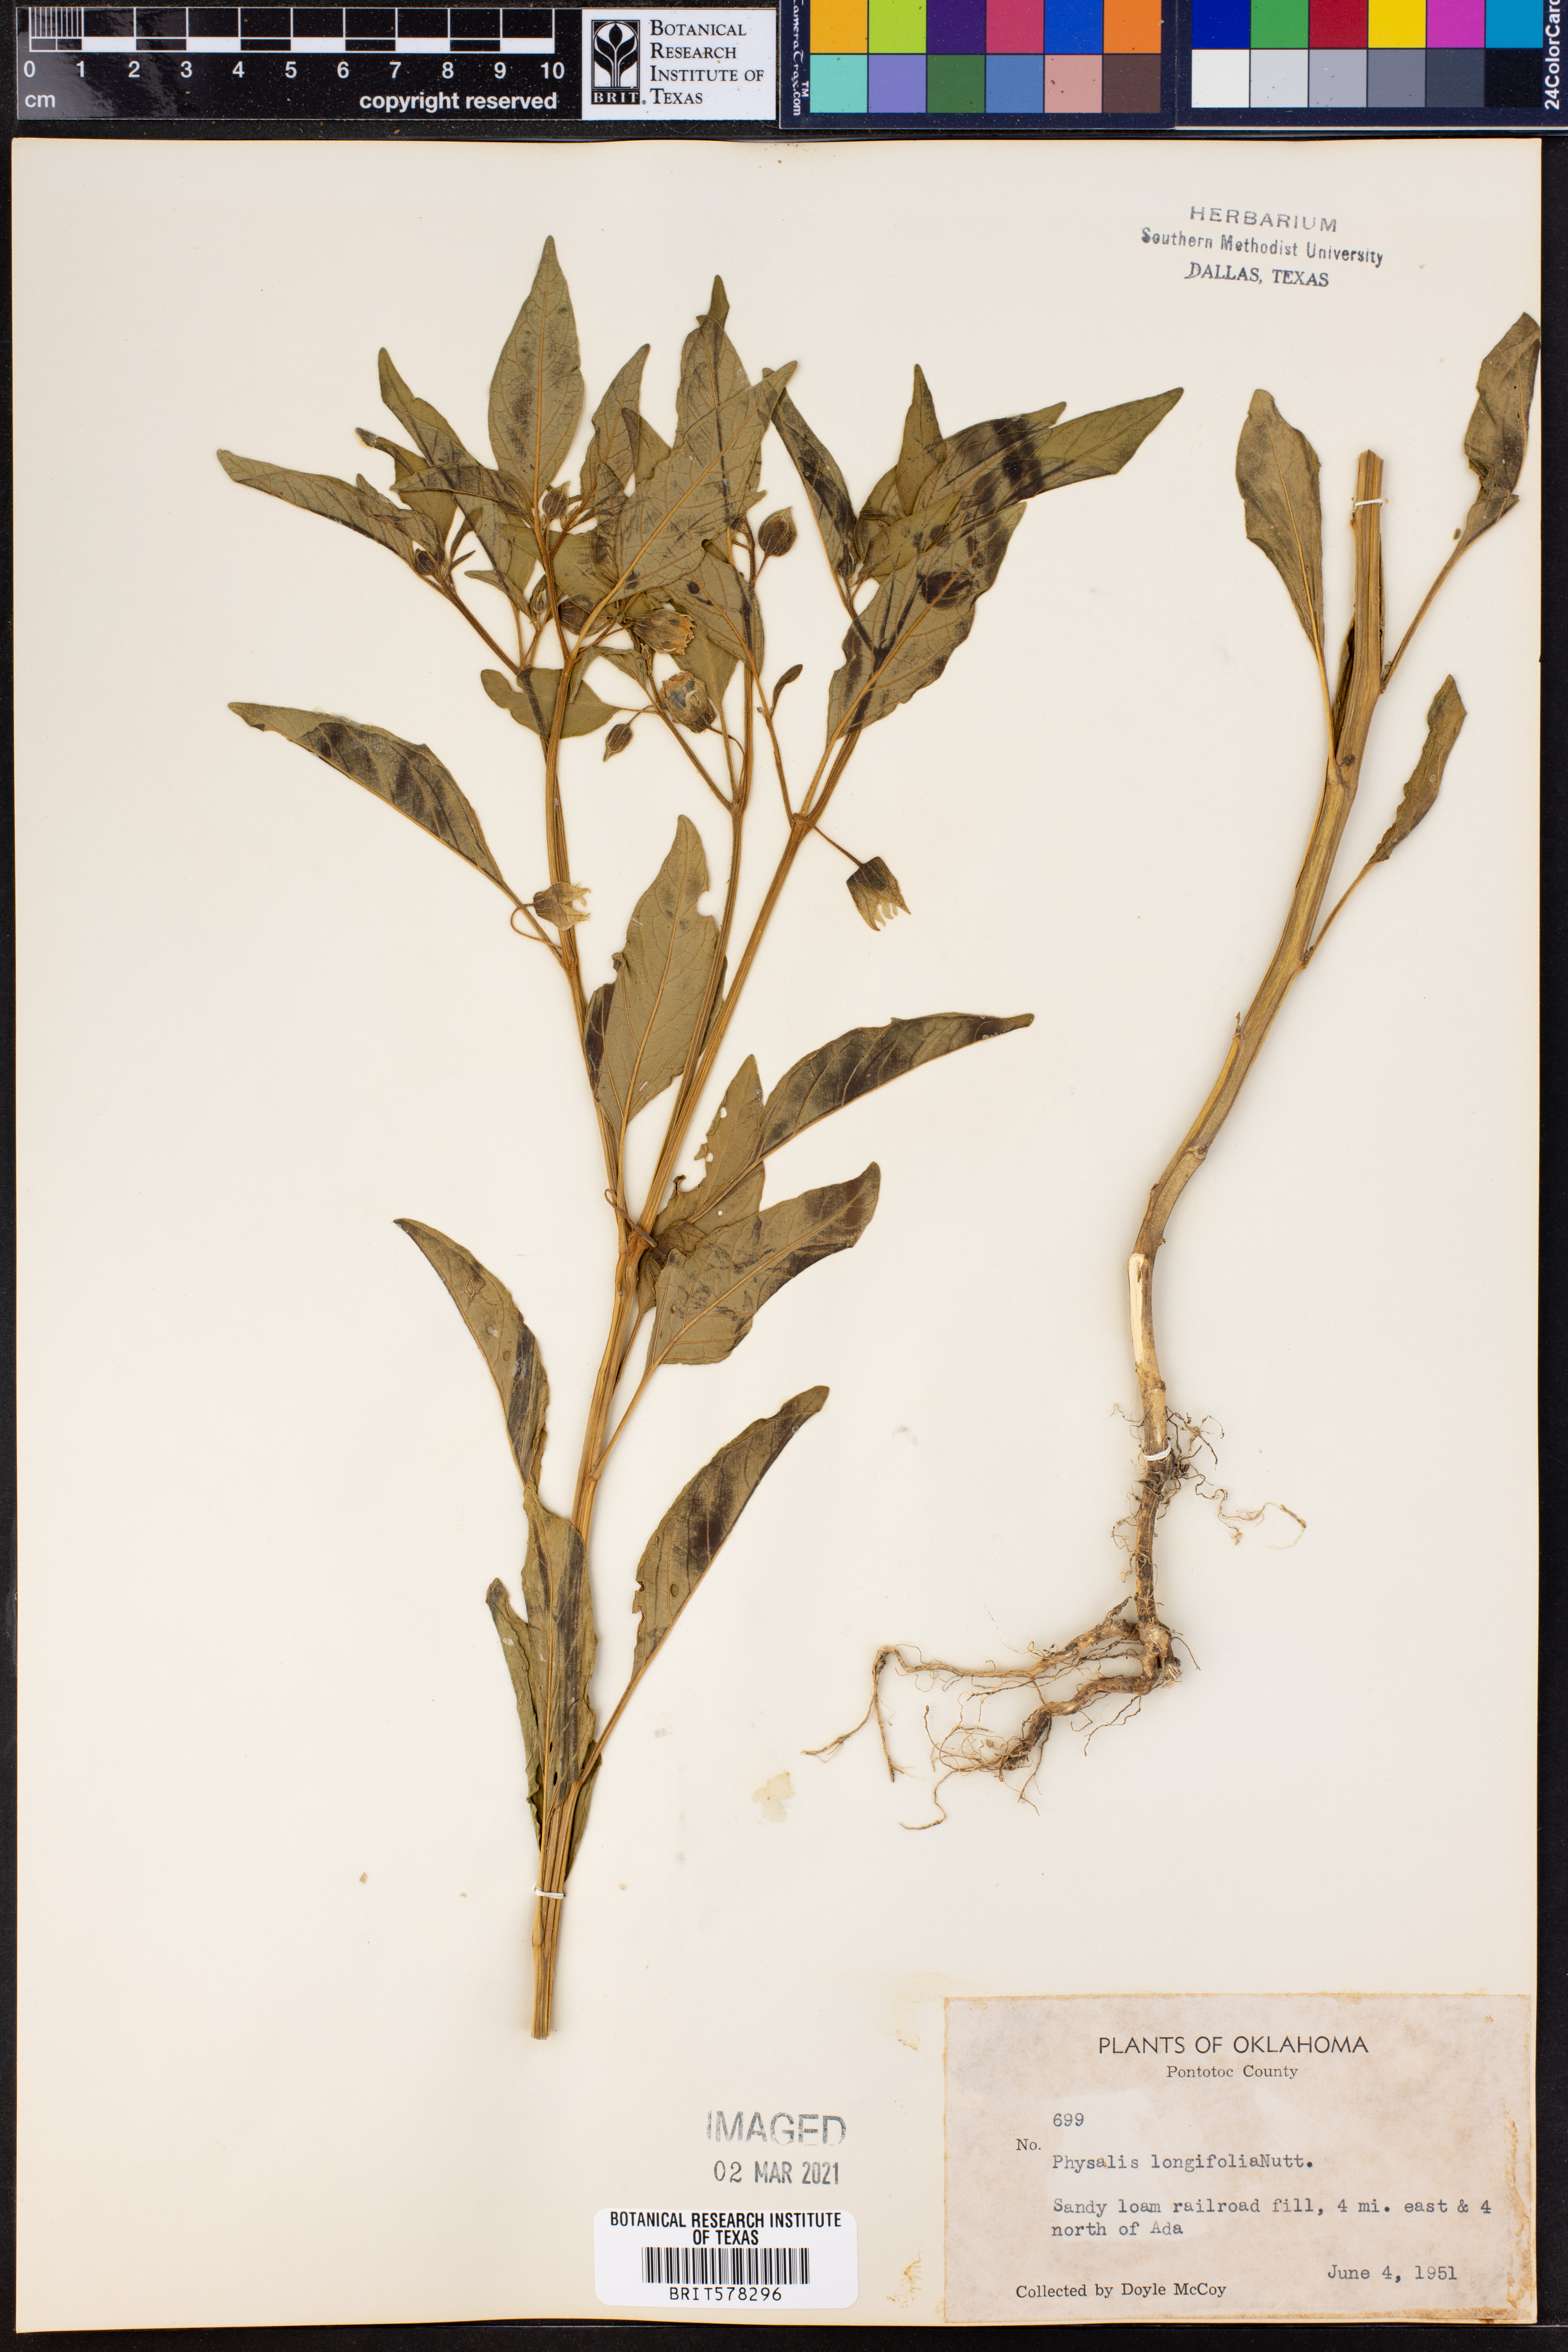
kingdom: Plantae
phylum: Tracheophyta
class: Magnoliopsida
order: Solanales
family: Solanaceae
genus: Physalis
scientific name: Physalis longifolia
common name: Common ground-cherry
